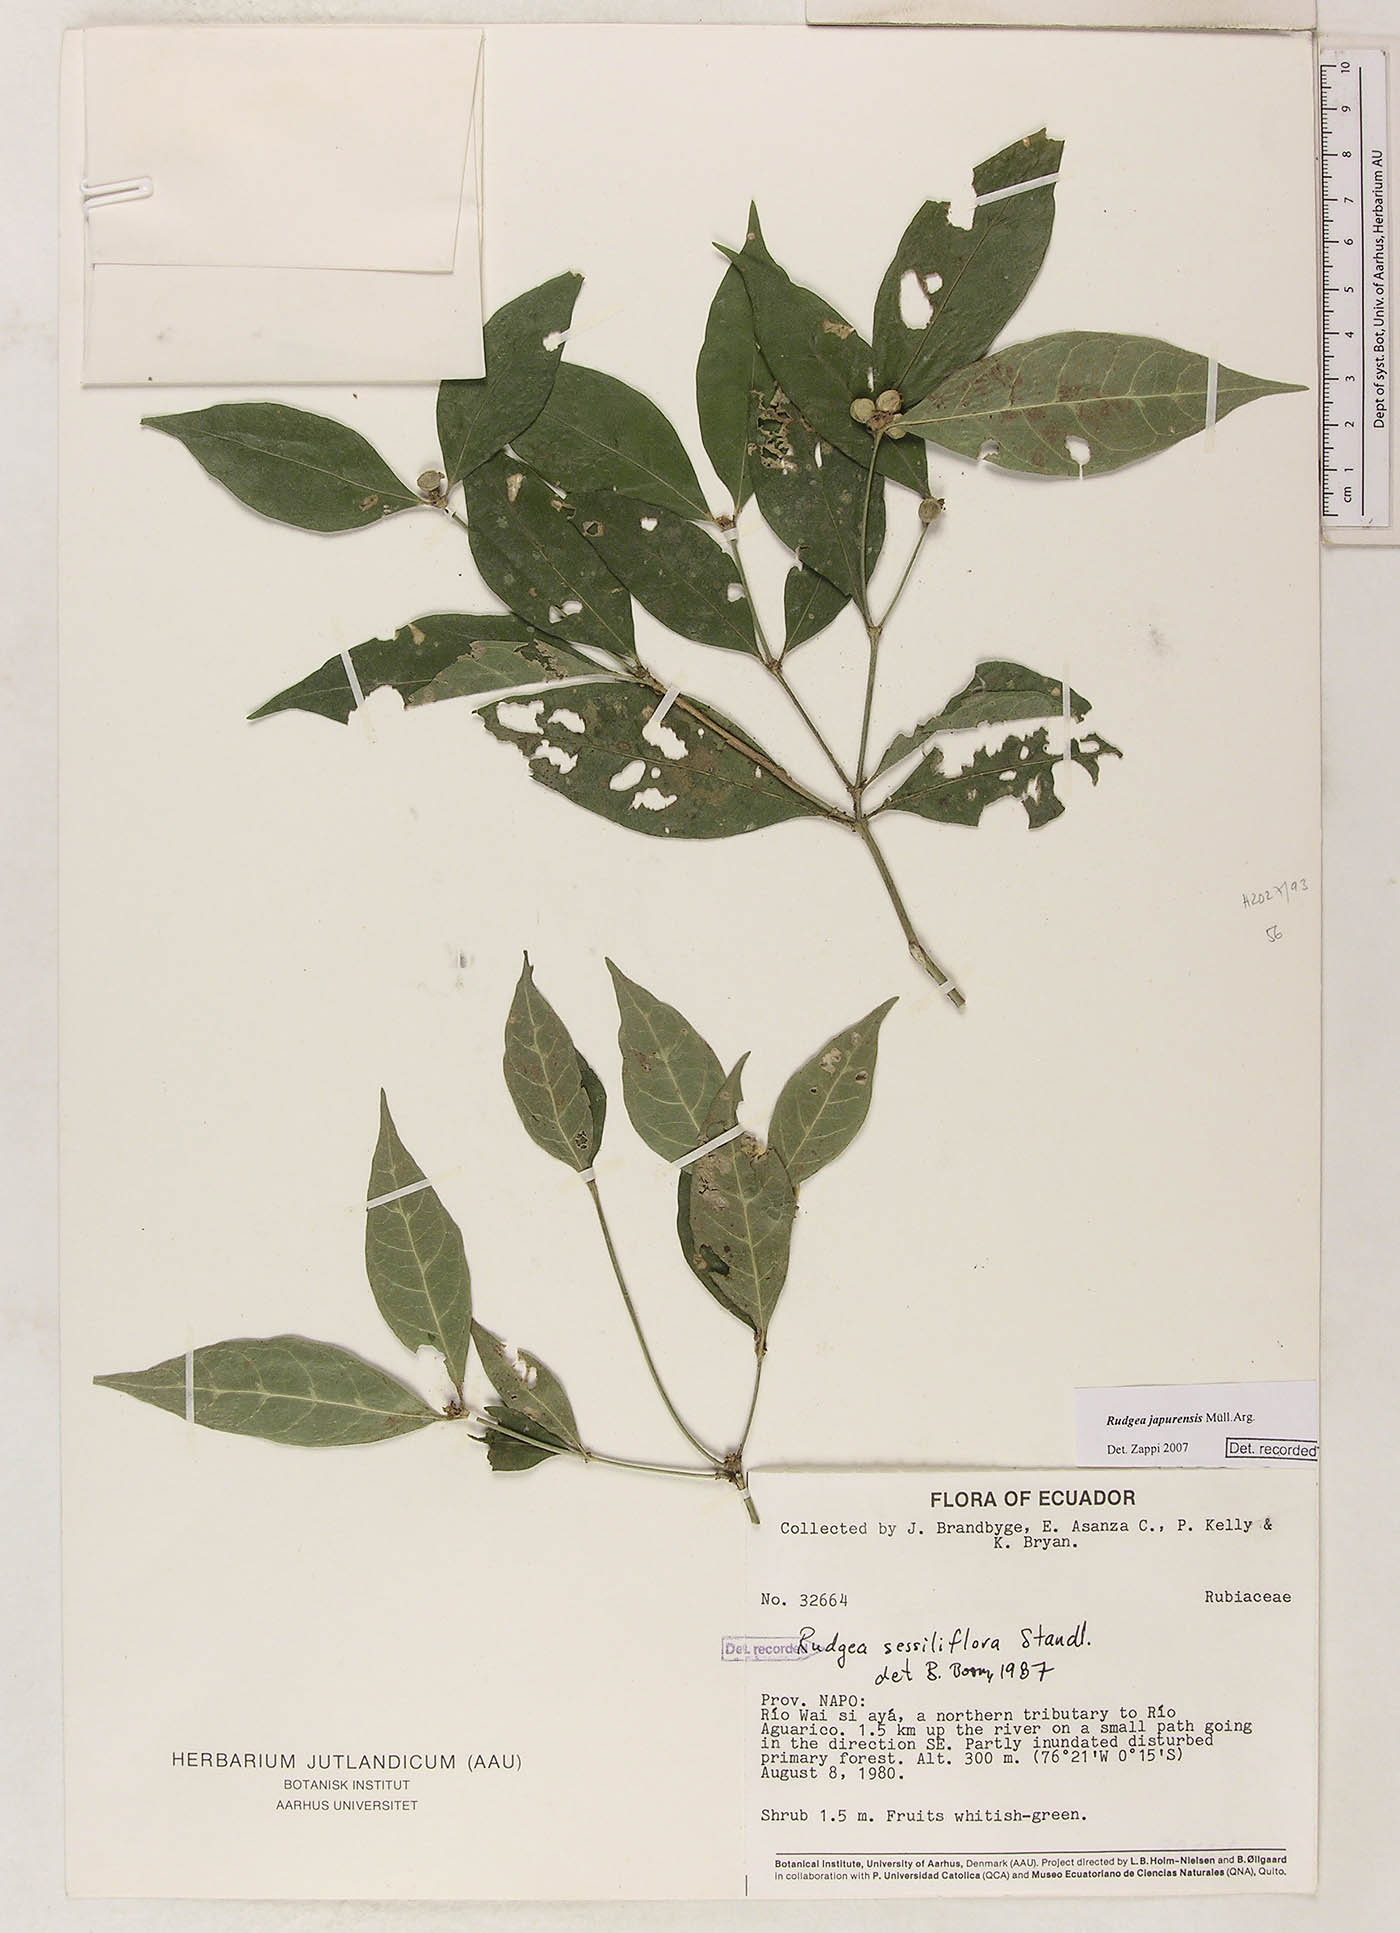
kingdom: Plantae
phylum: Tracheophyta
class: Magnoliopsida
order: Gentianales
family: Rubiaceae
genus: Rudgea
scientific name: Rudgea panurensis
